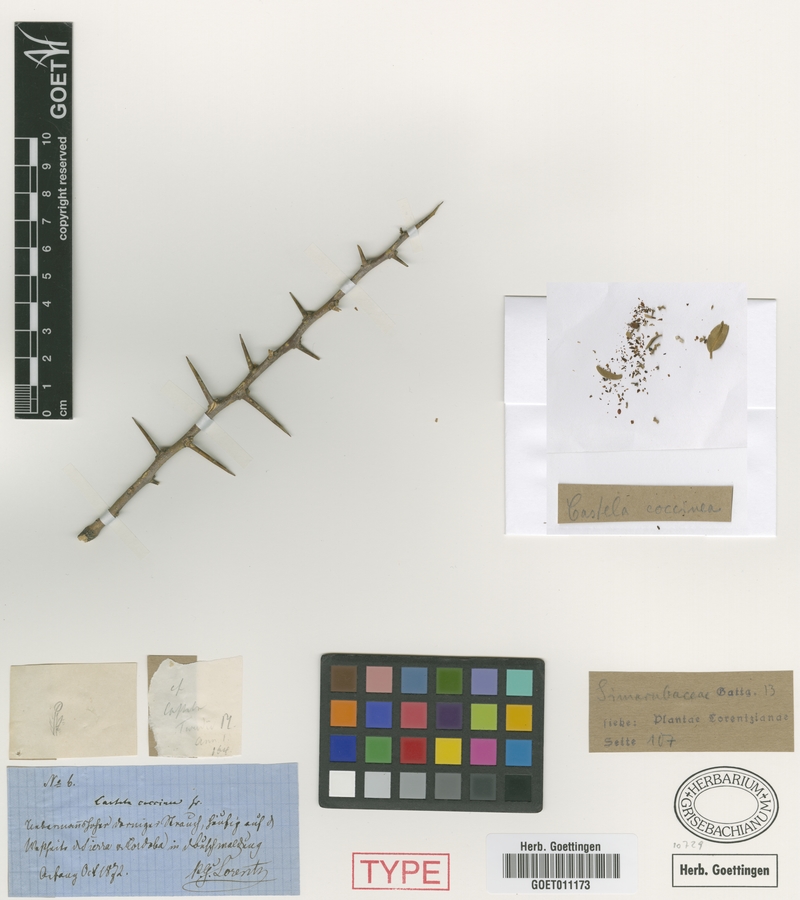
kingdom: Plantae
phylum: Tracheophyta
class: Magnoliopsida
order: Sapindales
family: Simaroubaceae
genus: Castela
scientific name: Castela coccinea
